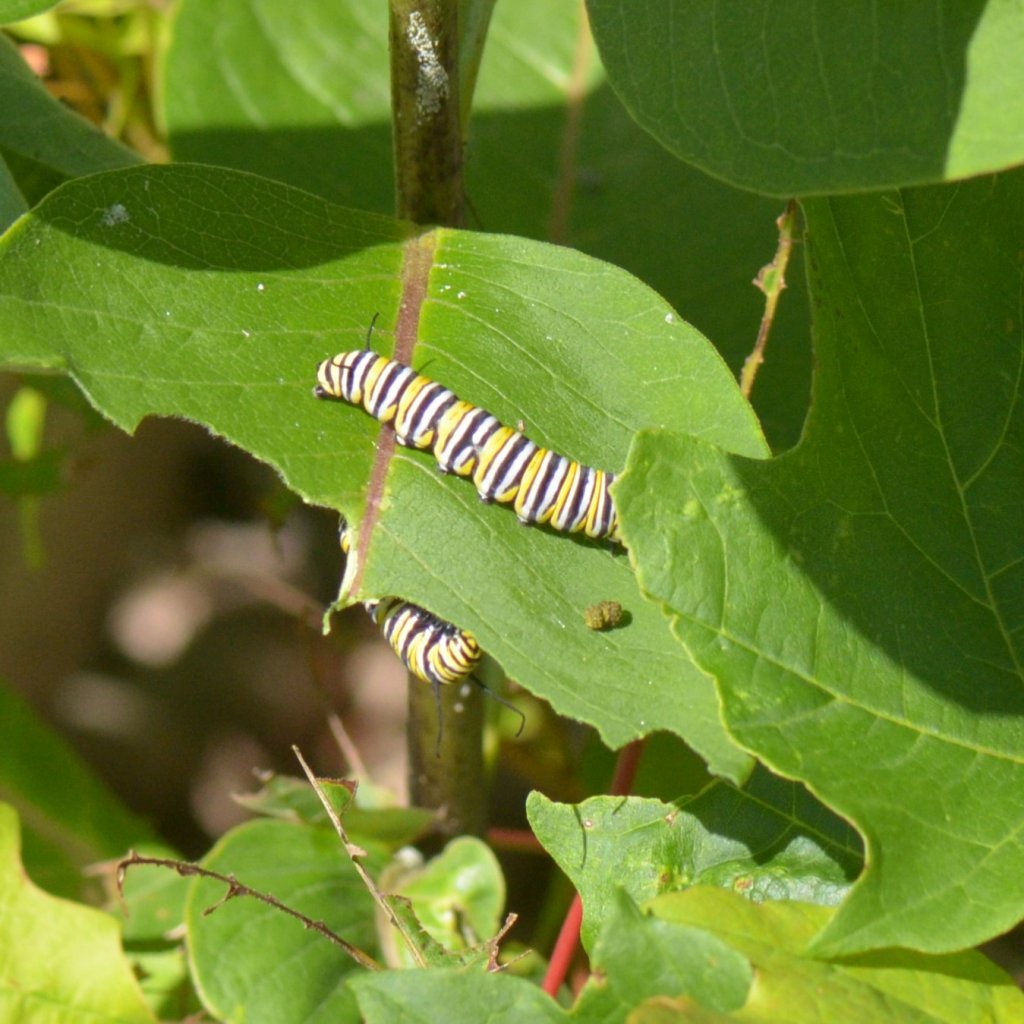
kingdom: Animalia
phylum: Arthropoda
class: Insecta
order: Lepidoptera
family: Nymphalidae
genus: Danaus
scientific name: Danaus plexippus
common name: Monarch
